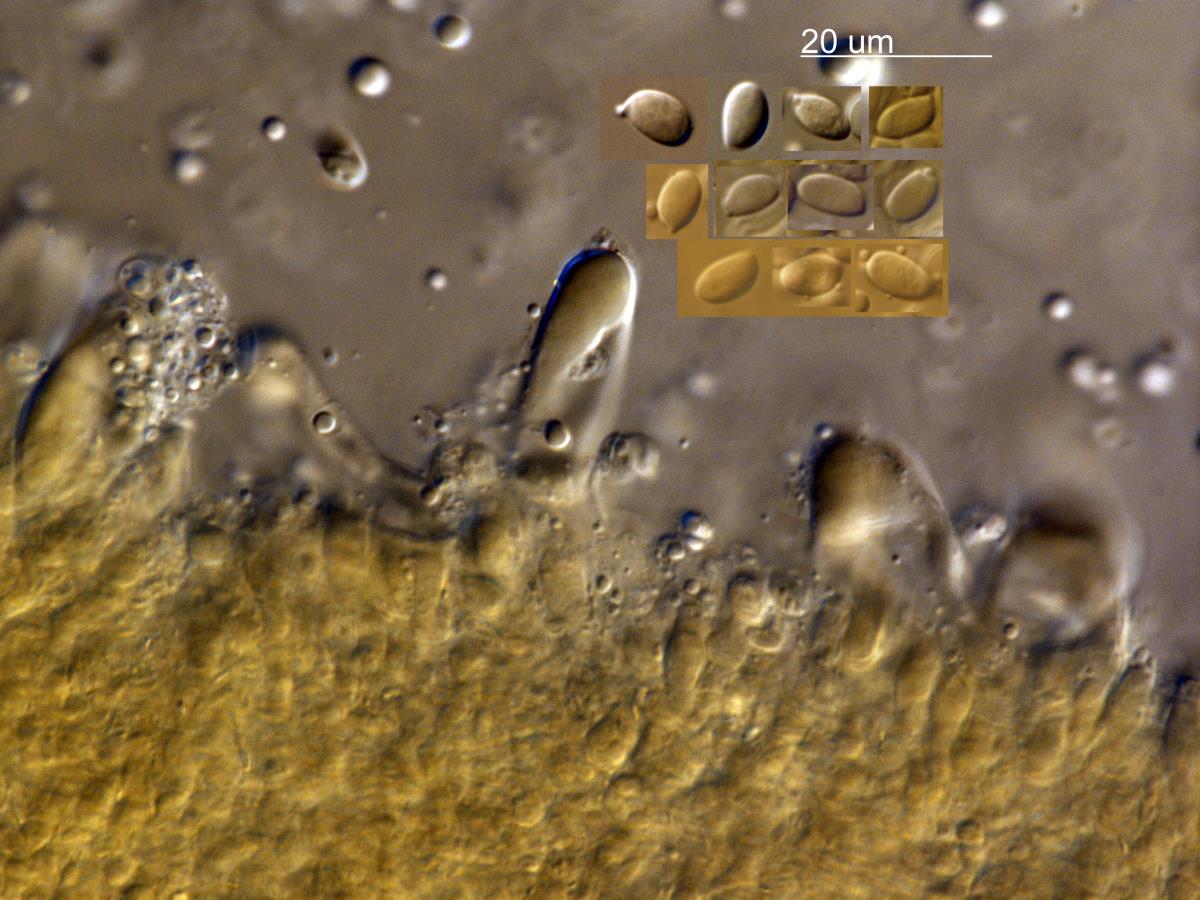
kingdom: Fungi
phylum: Basidiomycota
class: Agaricomycetes
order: Agaricales
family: Physalacriaceae
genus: Flammulina
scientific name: Flammulina velutipes
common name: Velvet shank
